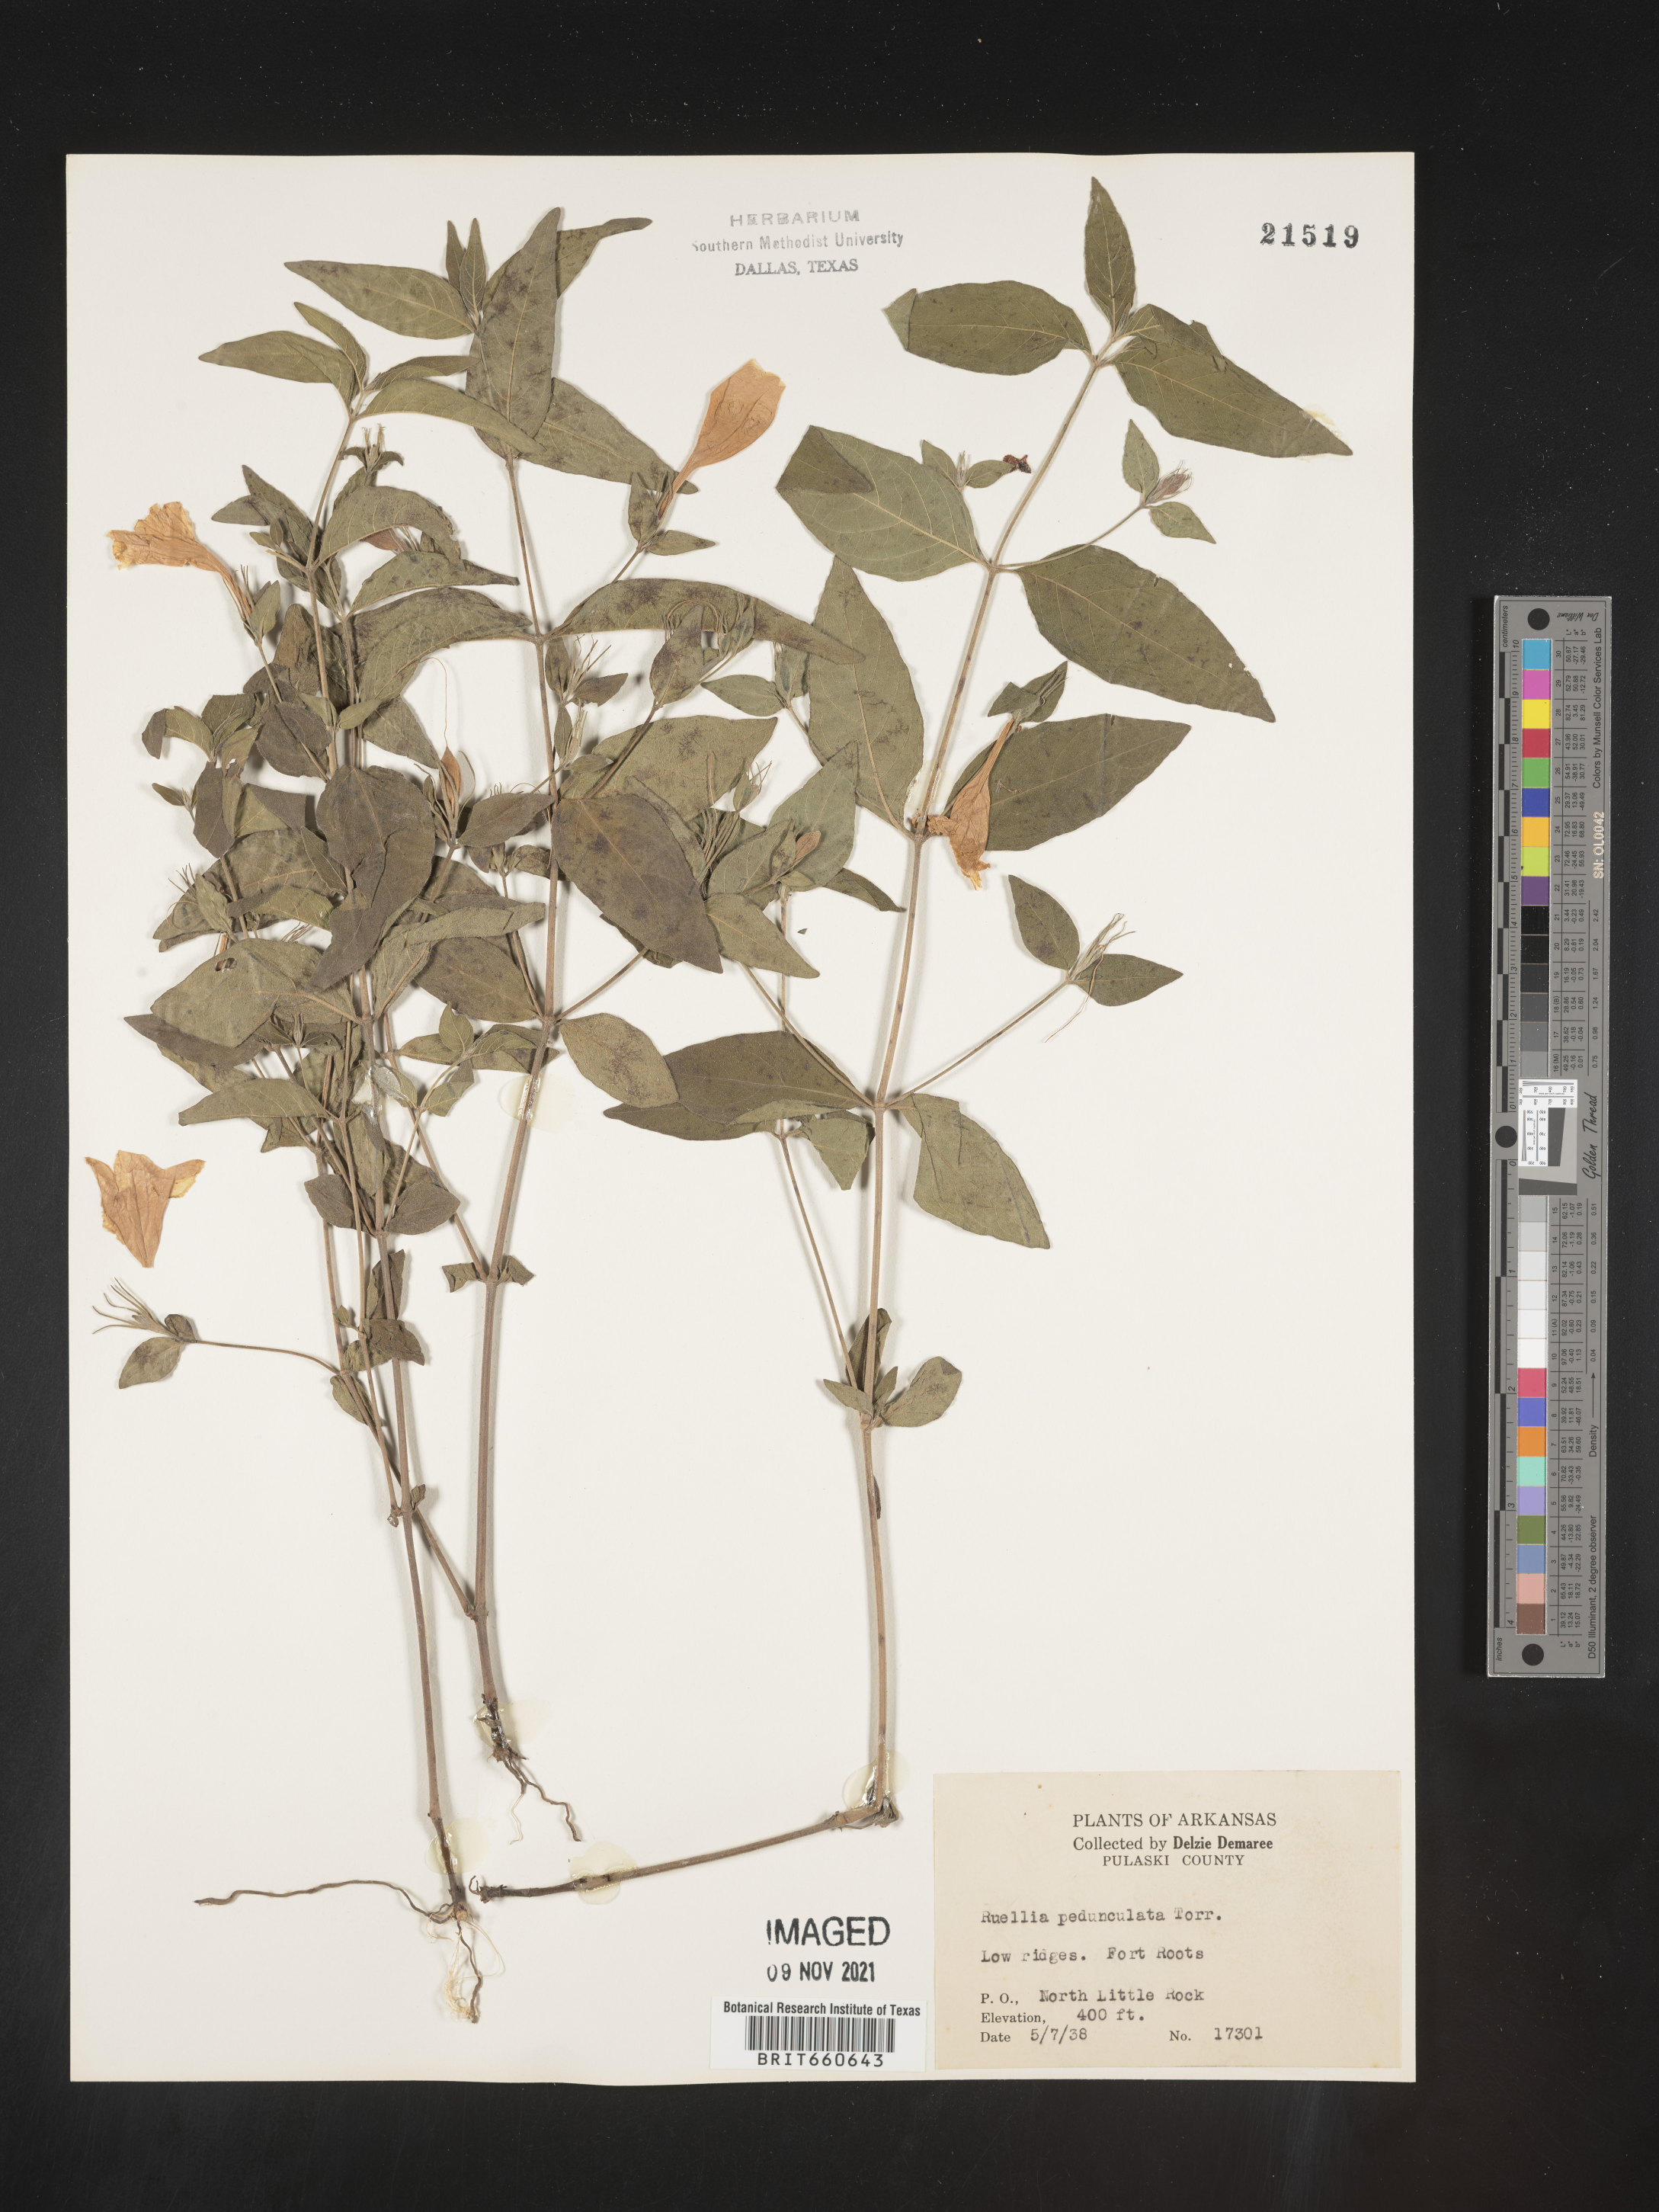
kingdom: Plantae
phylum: Tracheophyta
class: Magnoliopsida
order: Lamiales
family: Acanthaceae
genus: Ruellia
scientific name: Ruellia pedunculata
